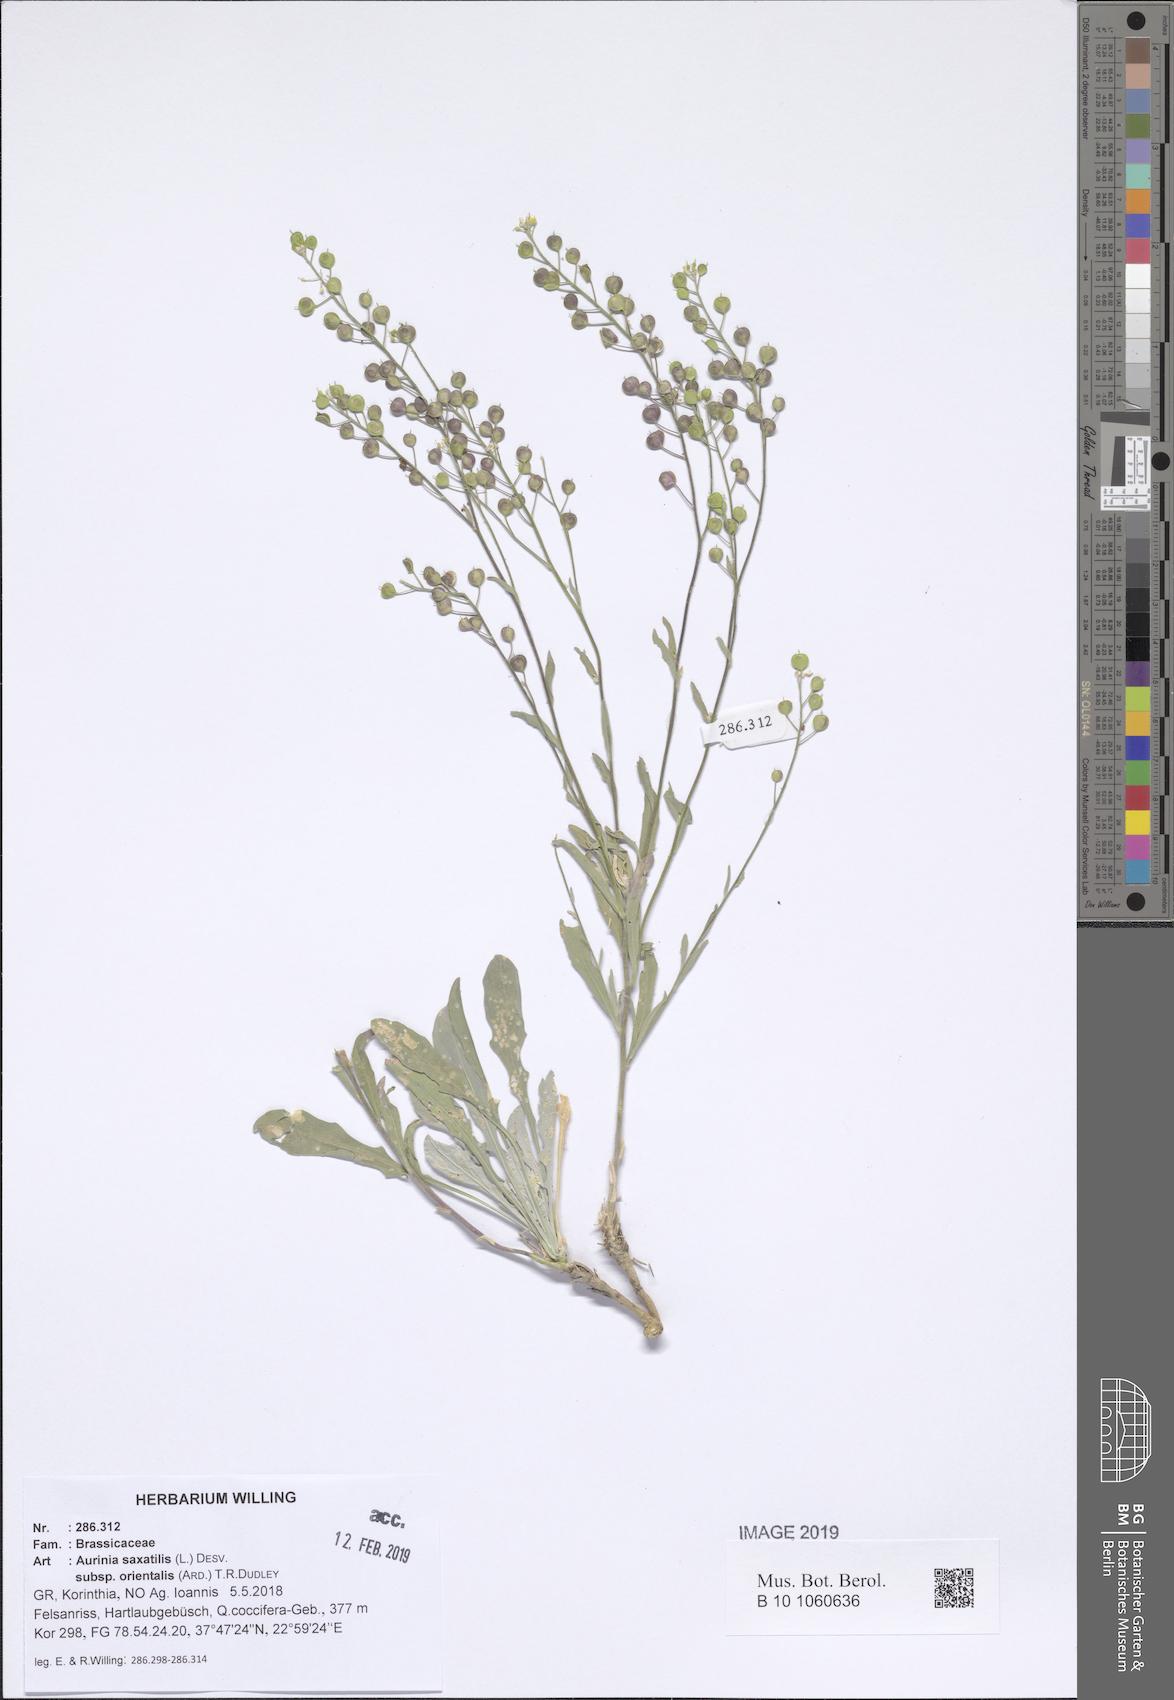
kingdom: Plantae
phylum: Tracheophyta
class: Magnoliopsida
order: Brassicales
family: Brassicaceae
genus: Aurinia
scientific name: Aurinia saxatilis
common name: Golden-tuft alyssum
